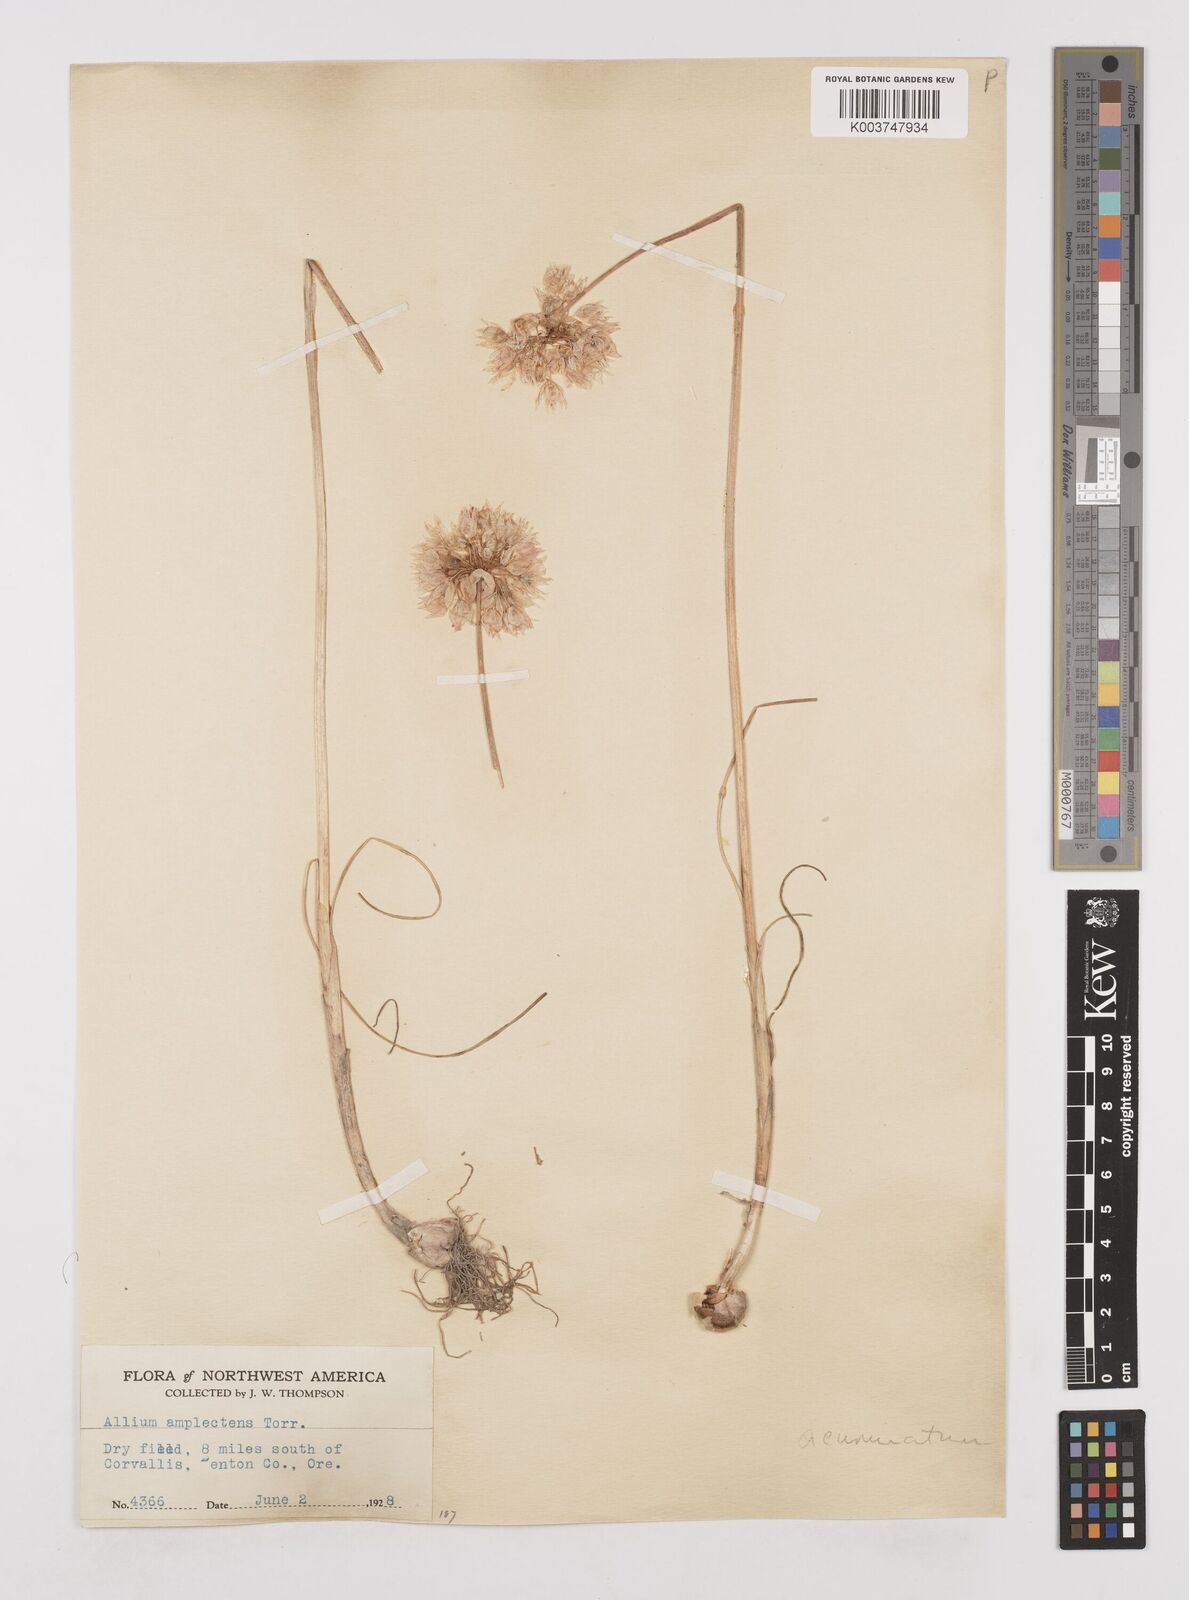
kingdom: Plantae
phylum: Tracheophyta
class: Liliopsida
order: Asparagales
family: Amaryllidaceae
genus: Allium
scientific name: Allium acuminatum
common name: Hooker's onion
